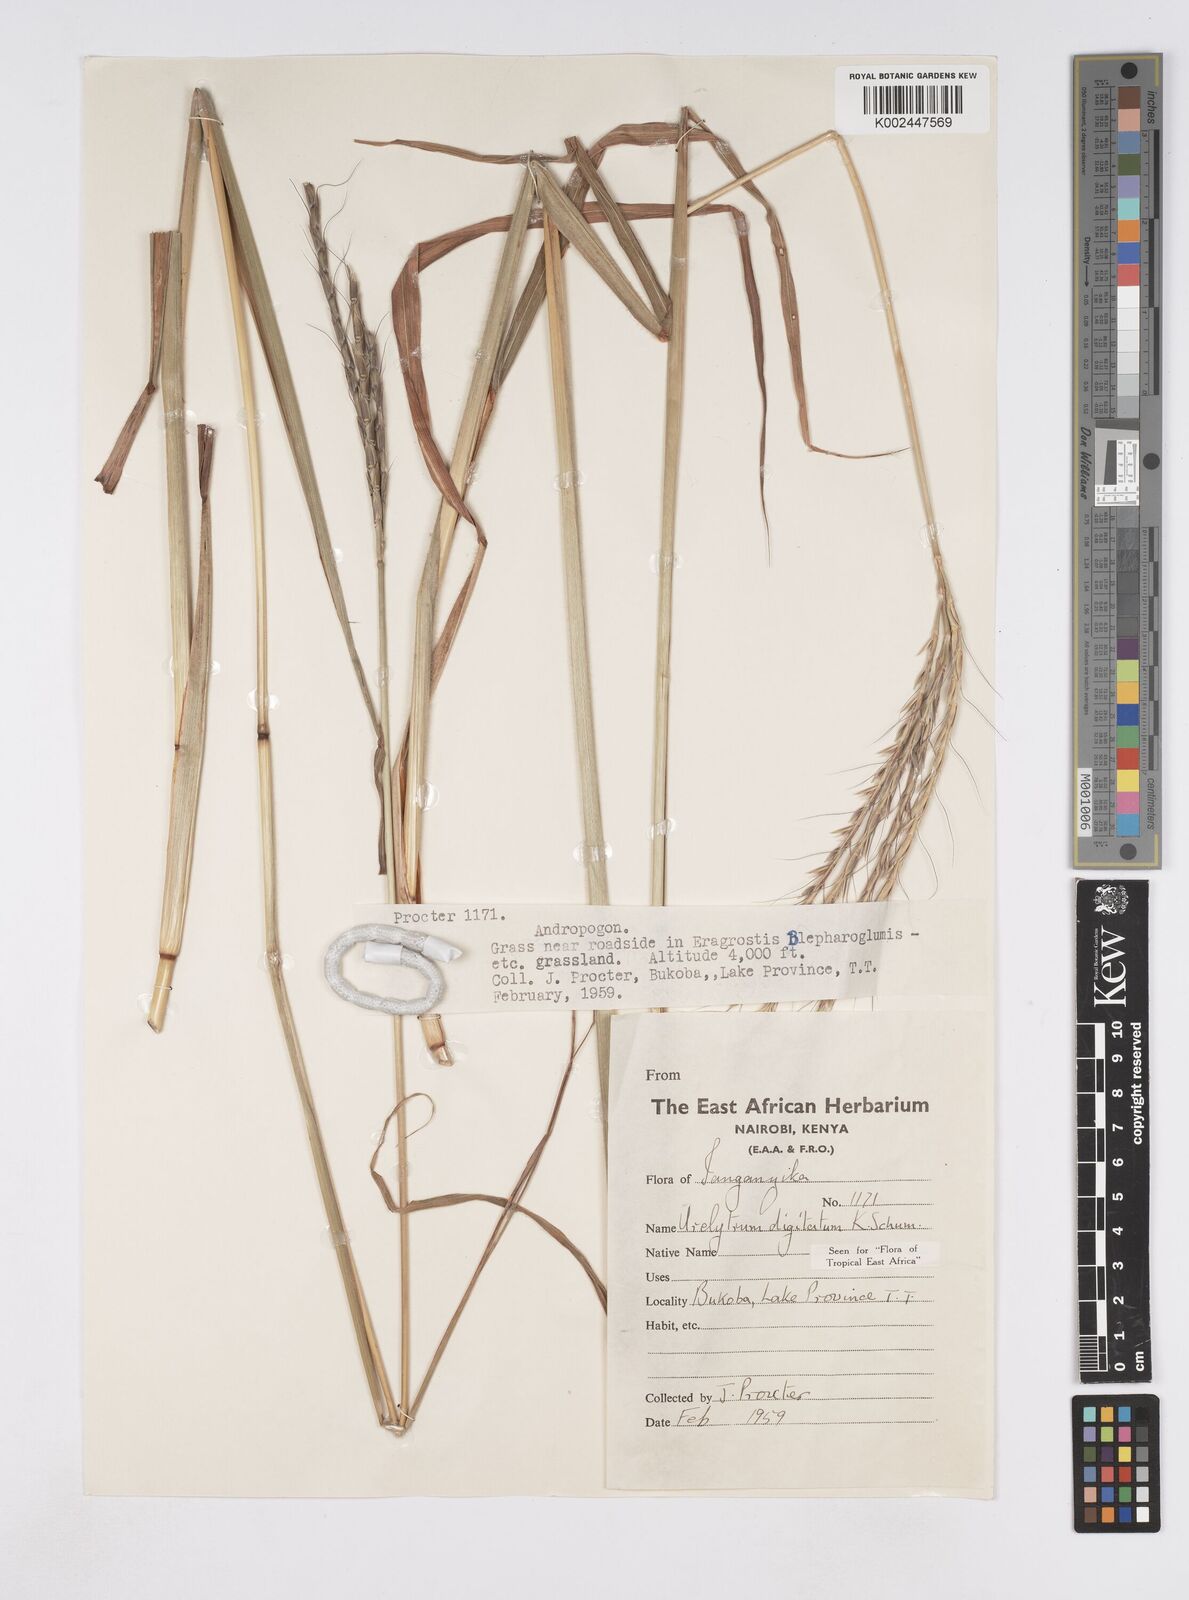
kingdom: Plantae
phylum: Tracheophyta
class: Liliopsida
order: Poales
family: Poaceae
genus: Urelytrum
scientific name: Urelytrum digitatum
